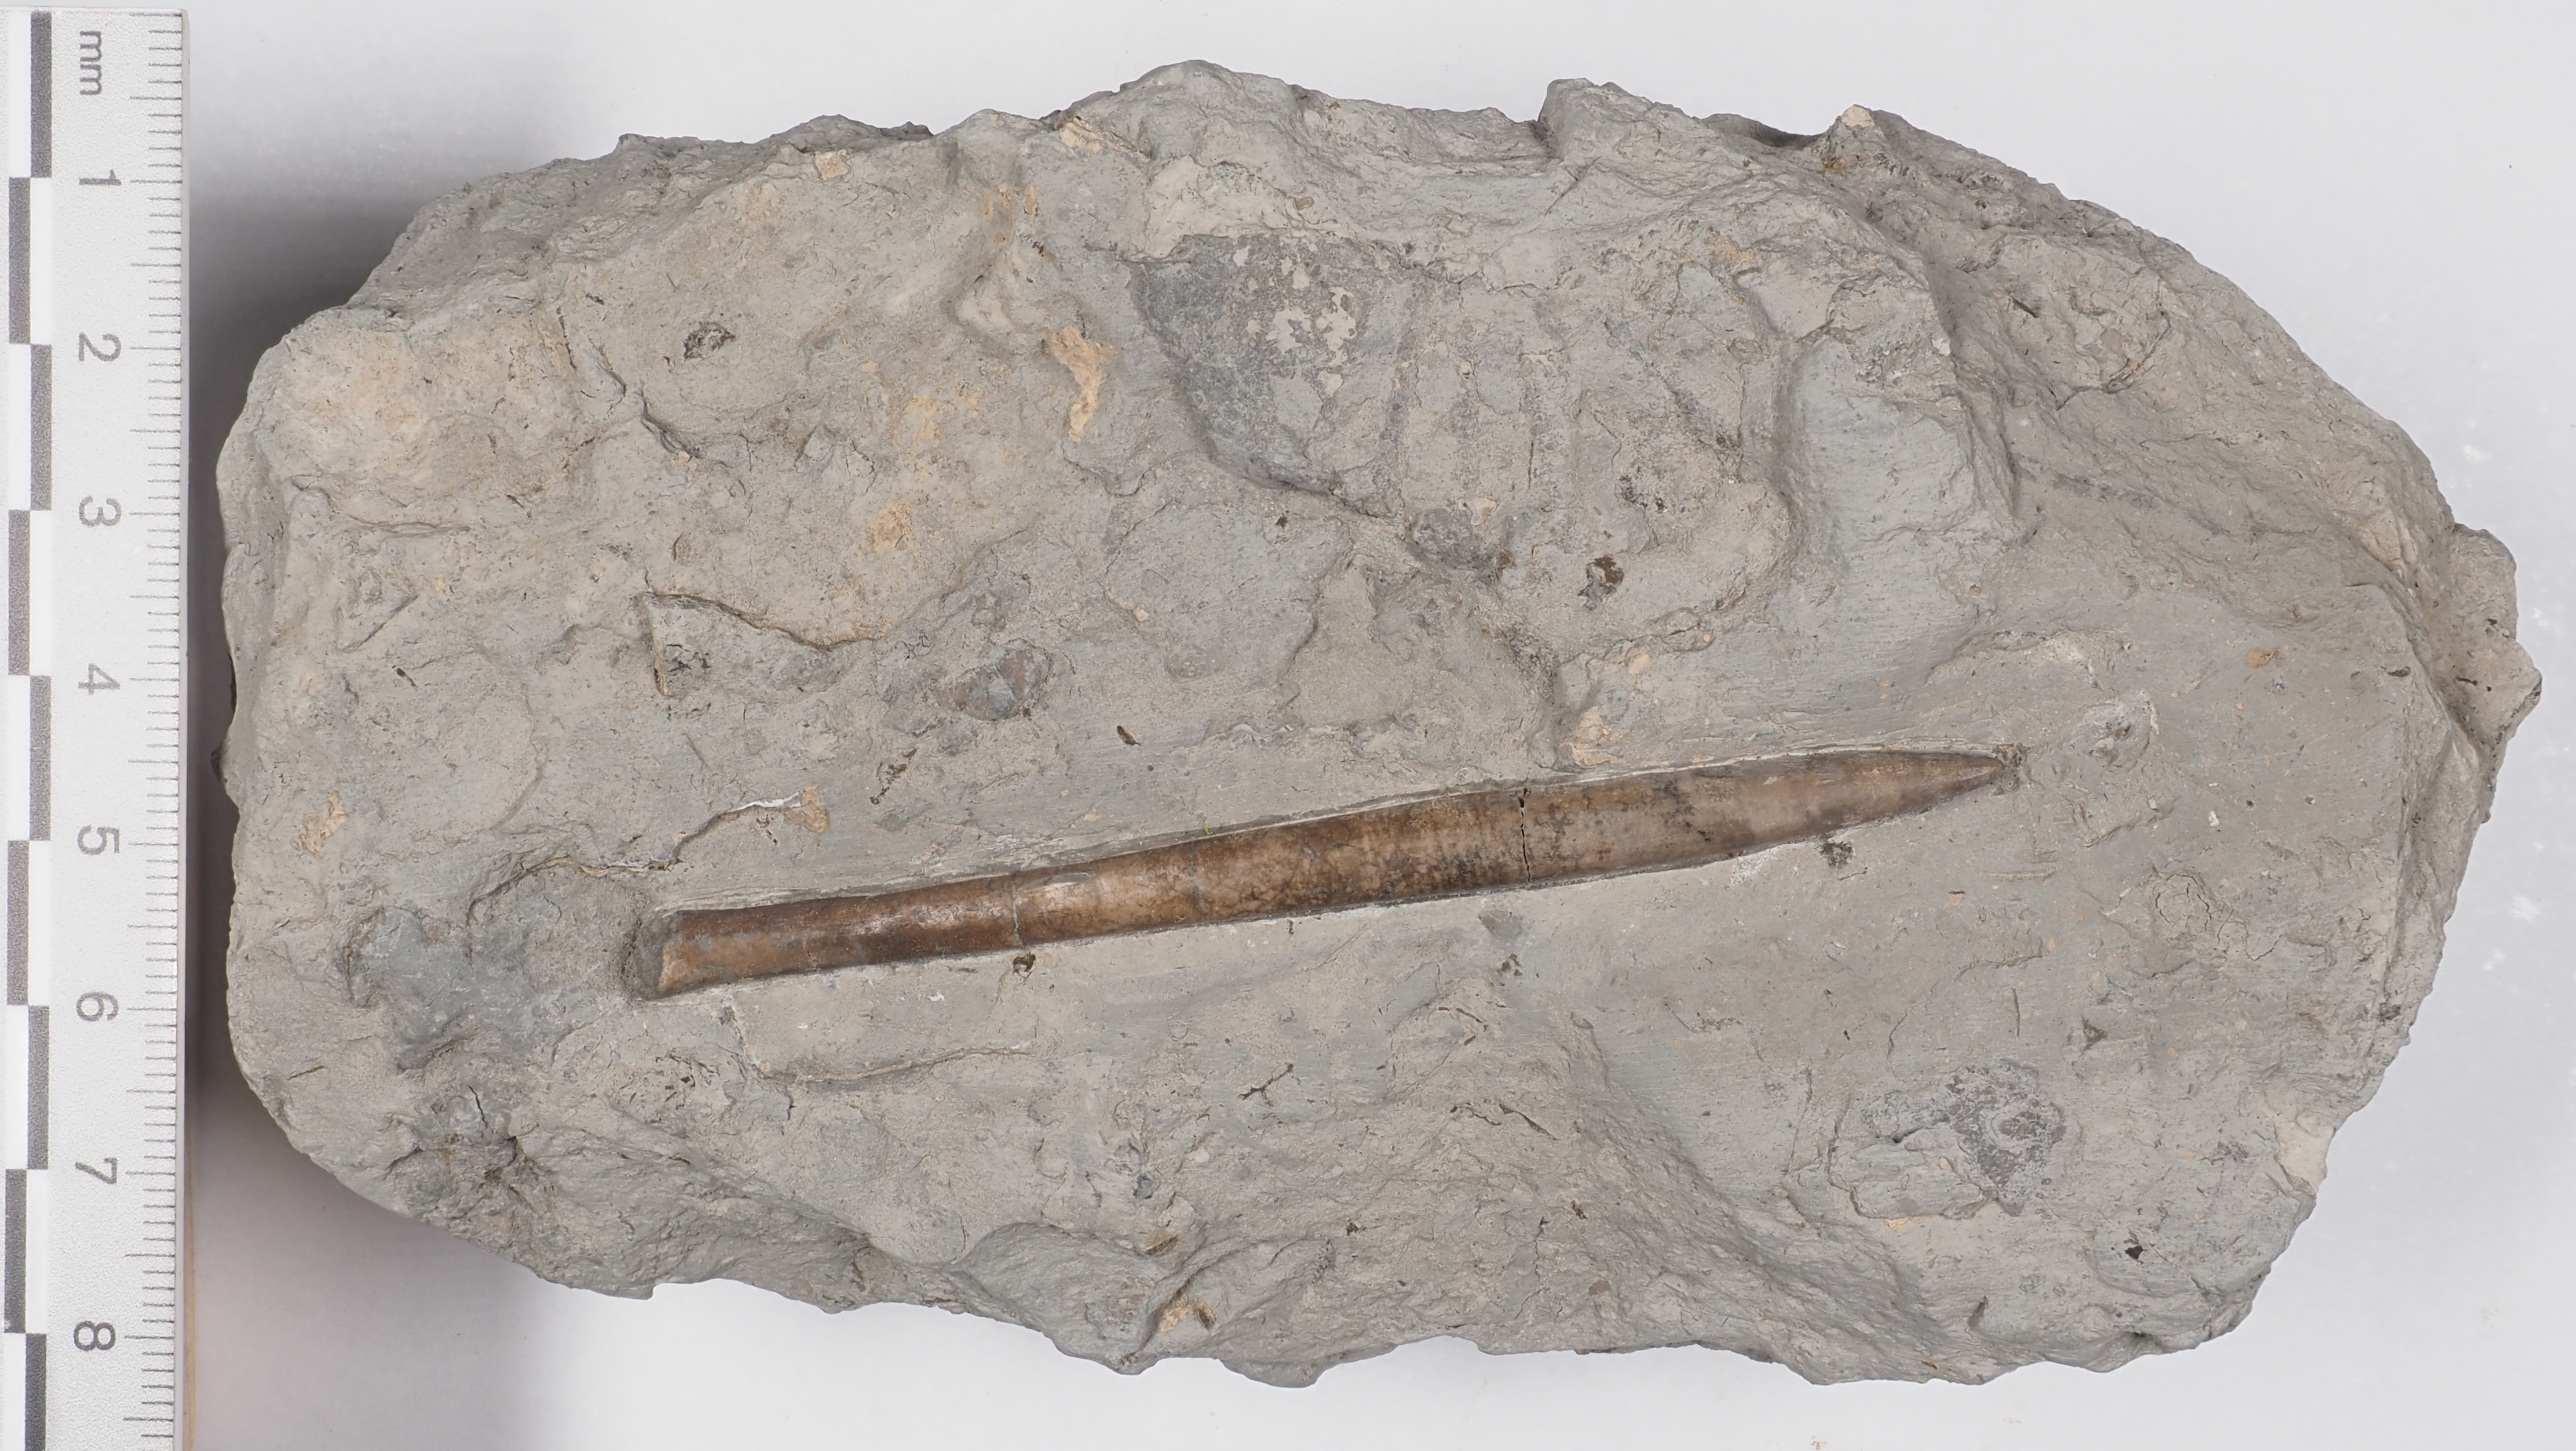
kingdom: Animalia
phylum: Mollusca
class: Cephalopoda
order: Belemnitida
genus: Subhastites
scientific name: Subhastites
